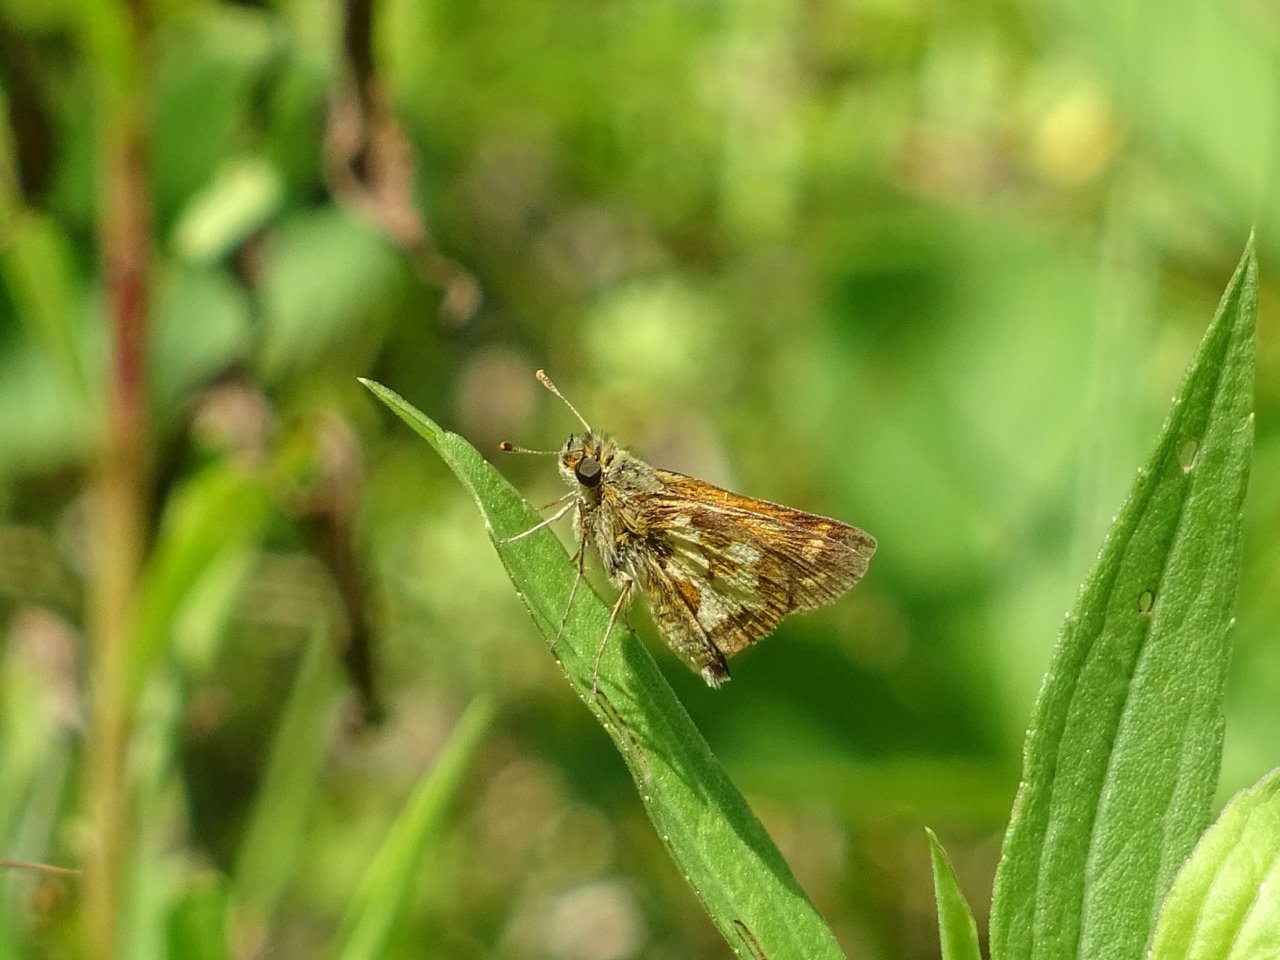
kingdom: Animalia
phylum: Arthropoda
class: Insecta
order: Lepidoptera
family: Hesperiidae
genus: Polites
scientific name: Polites coras
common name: Peck's Skipper
